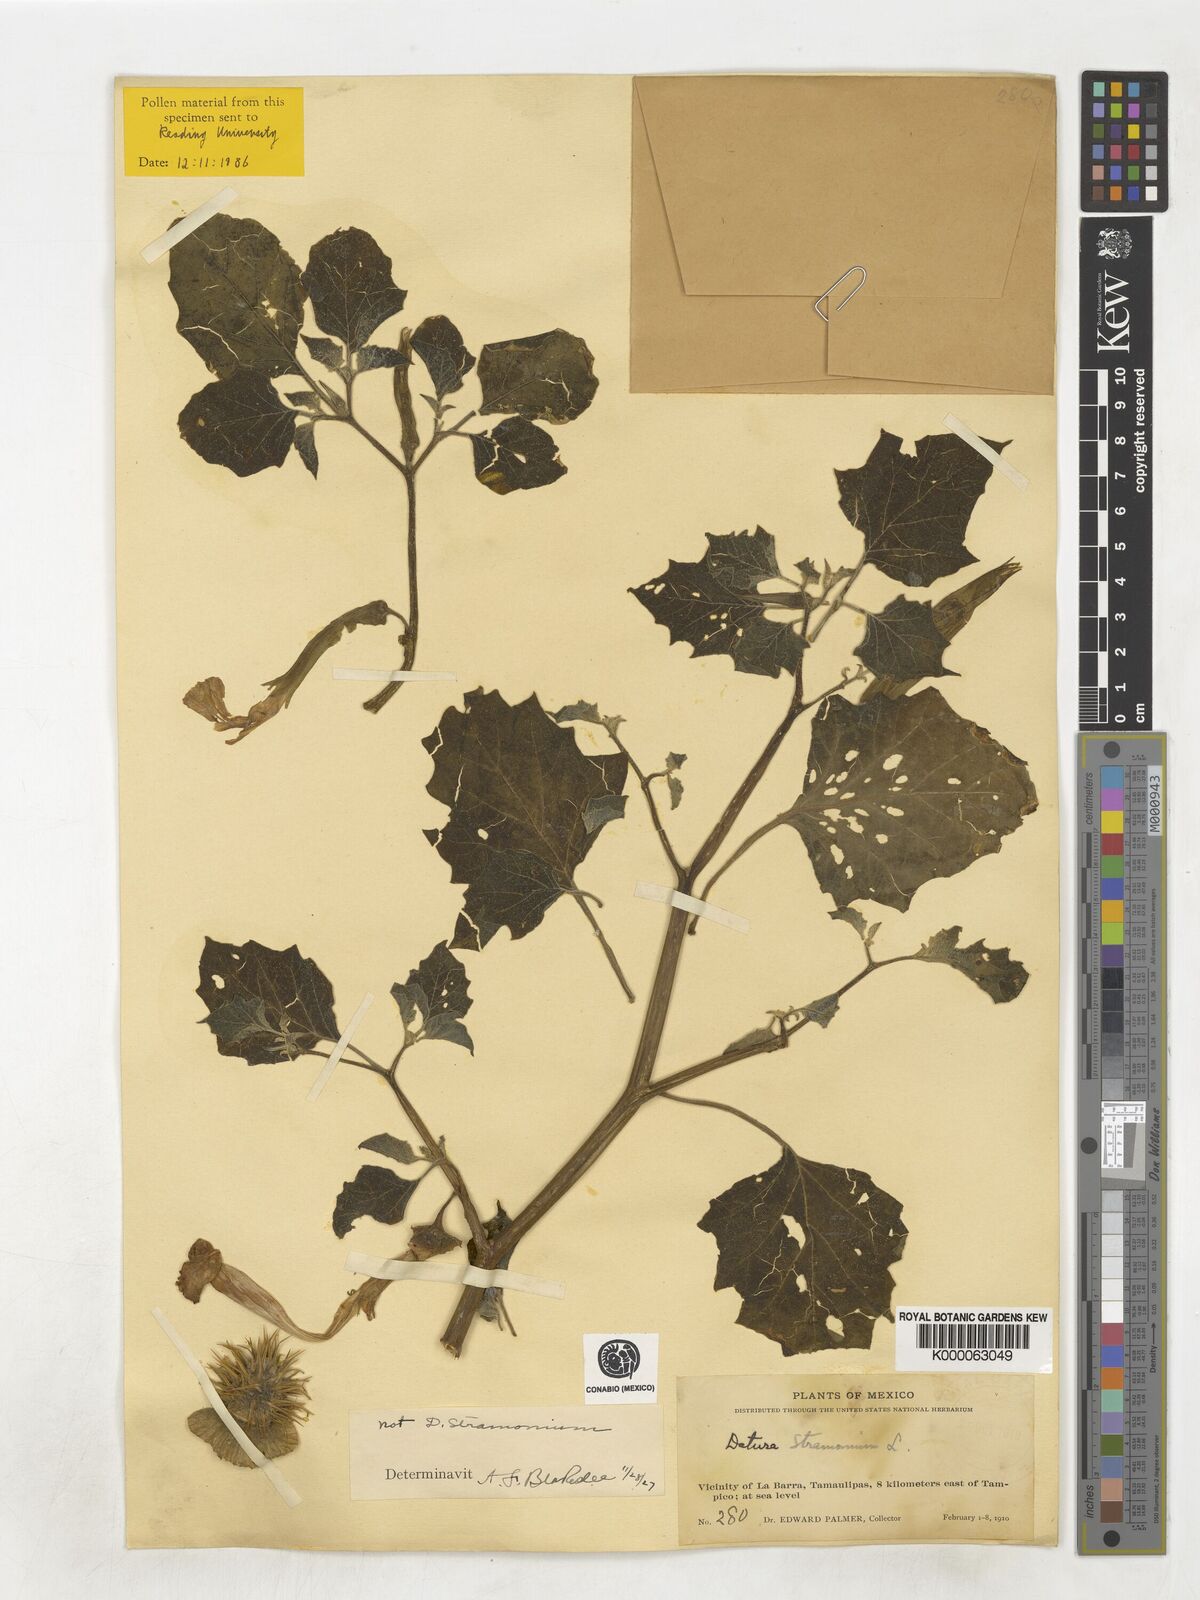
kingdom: Plantae
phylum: Tracheophyta
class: Magnoliopsida
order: Solanales
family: Solanaceae
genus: Datura
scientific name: Datura discolor
